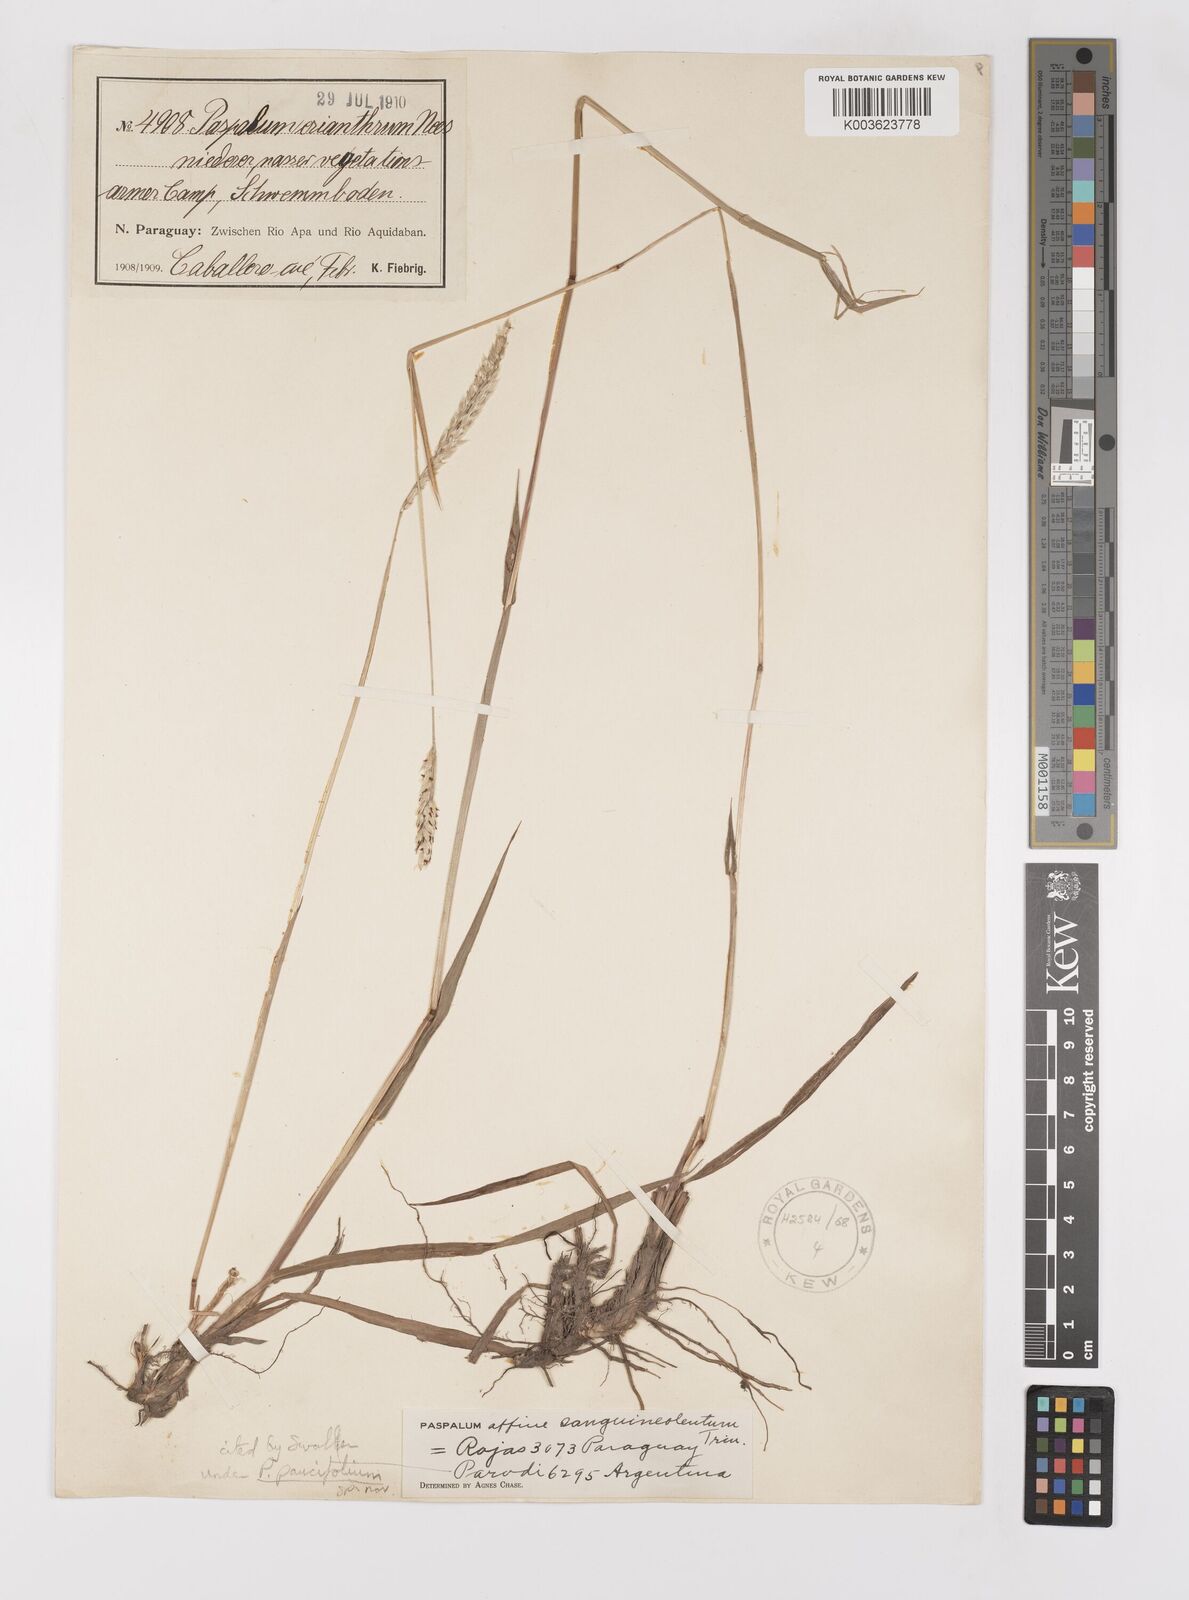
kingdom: Plantae
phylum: Tracheophyta
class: Liliopsida
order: Poales
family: Poaceae
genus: Paspalum
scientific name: Paspalum paucifolium
